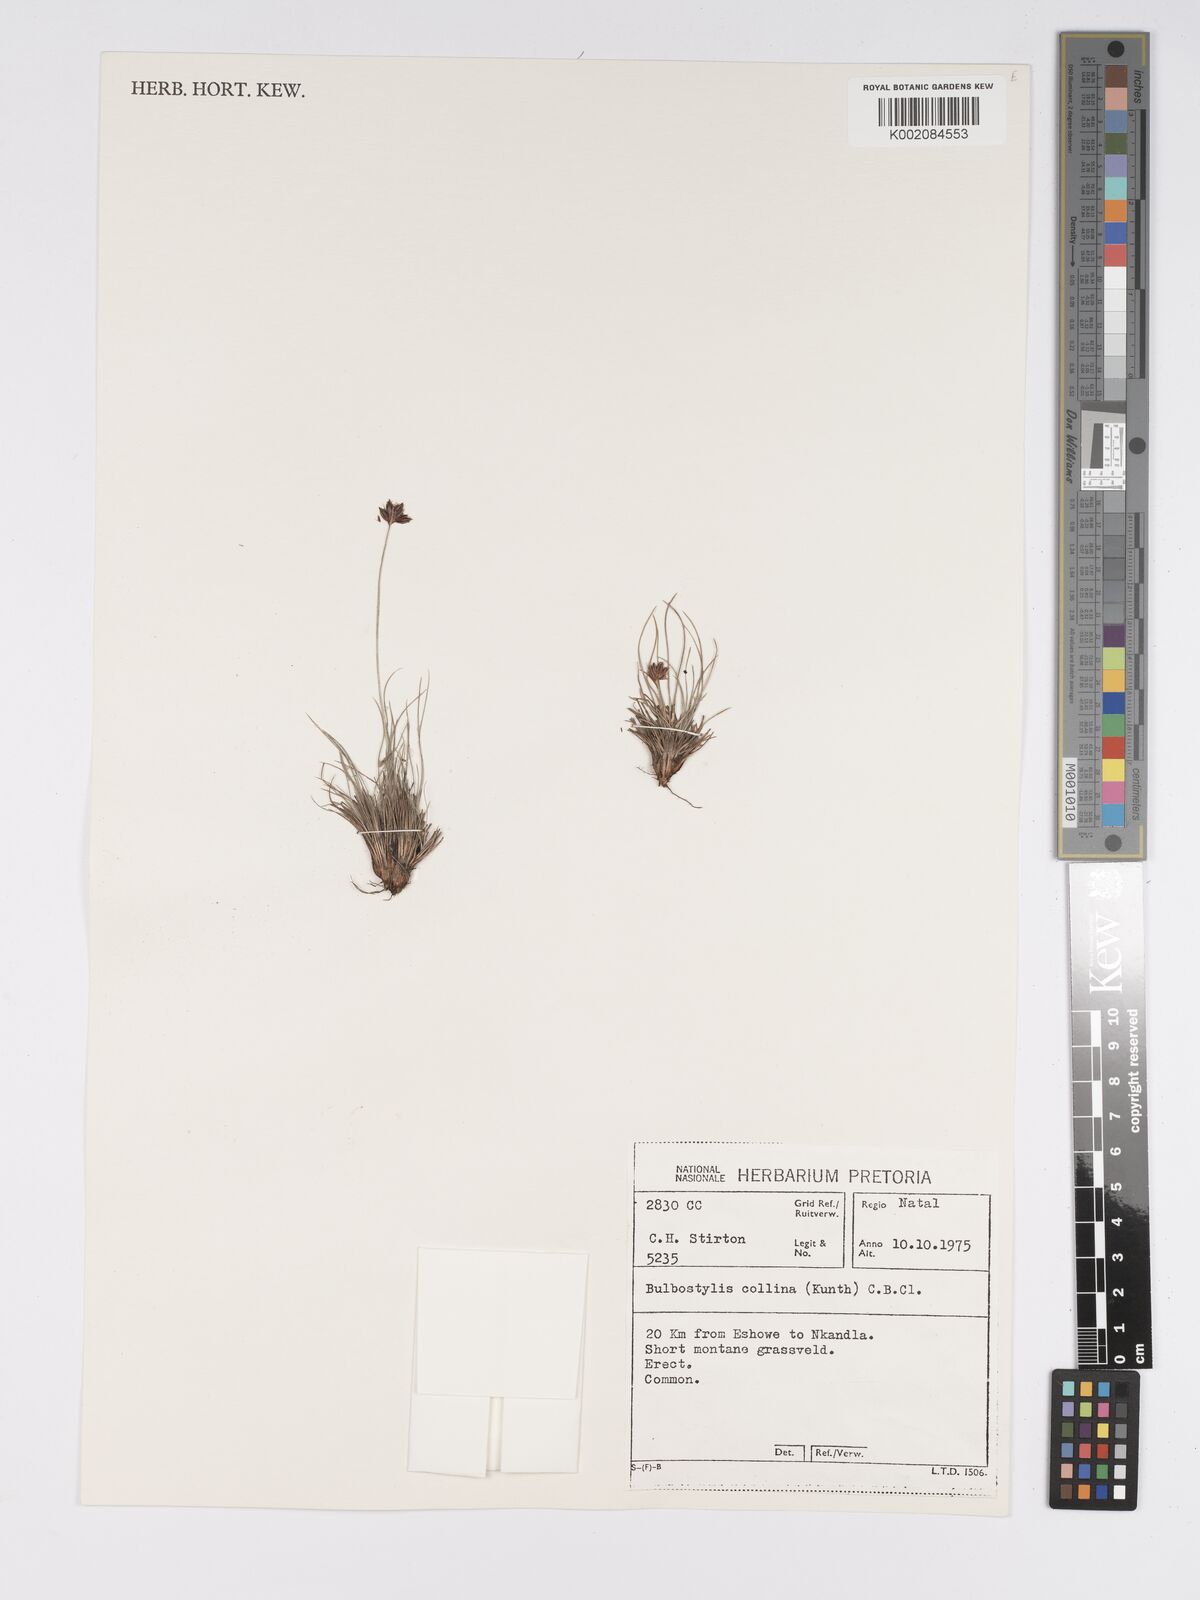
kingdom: Plantae
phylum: Tracheophyta
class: Liliopsida
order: Poales
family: Cyperaceae
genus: Bulbostylis
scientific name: Bulbostylis contexta
